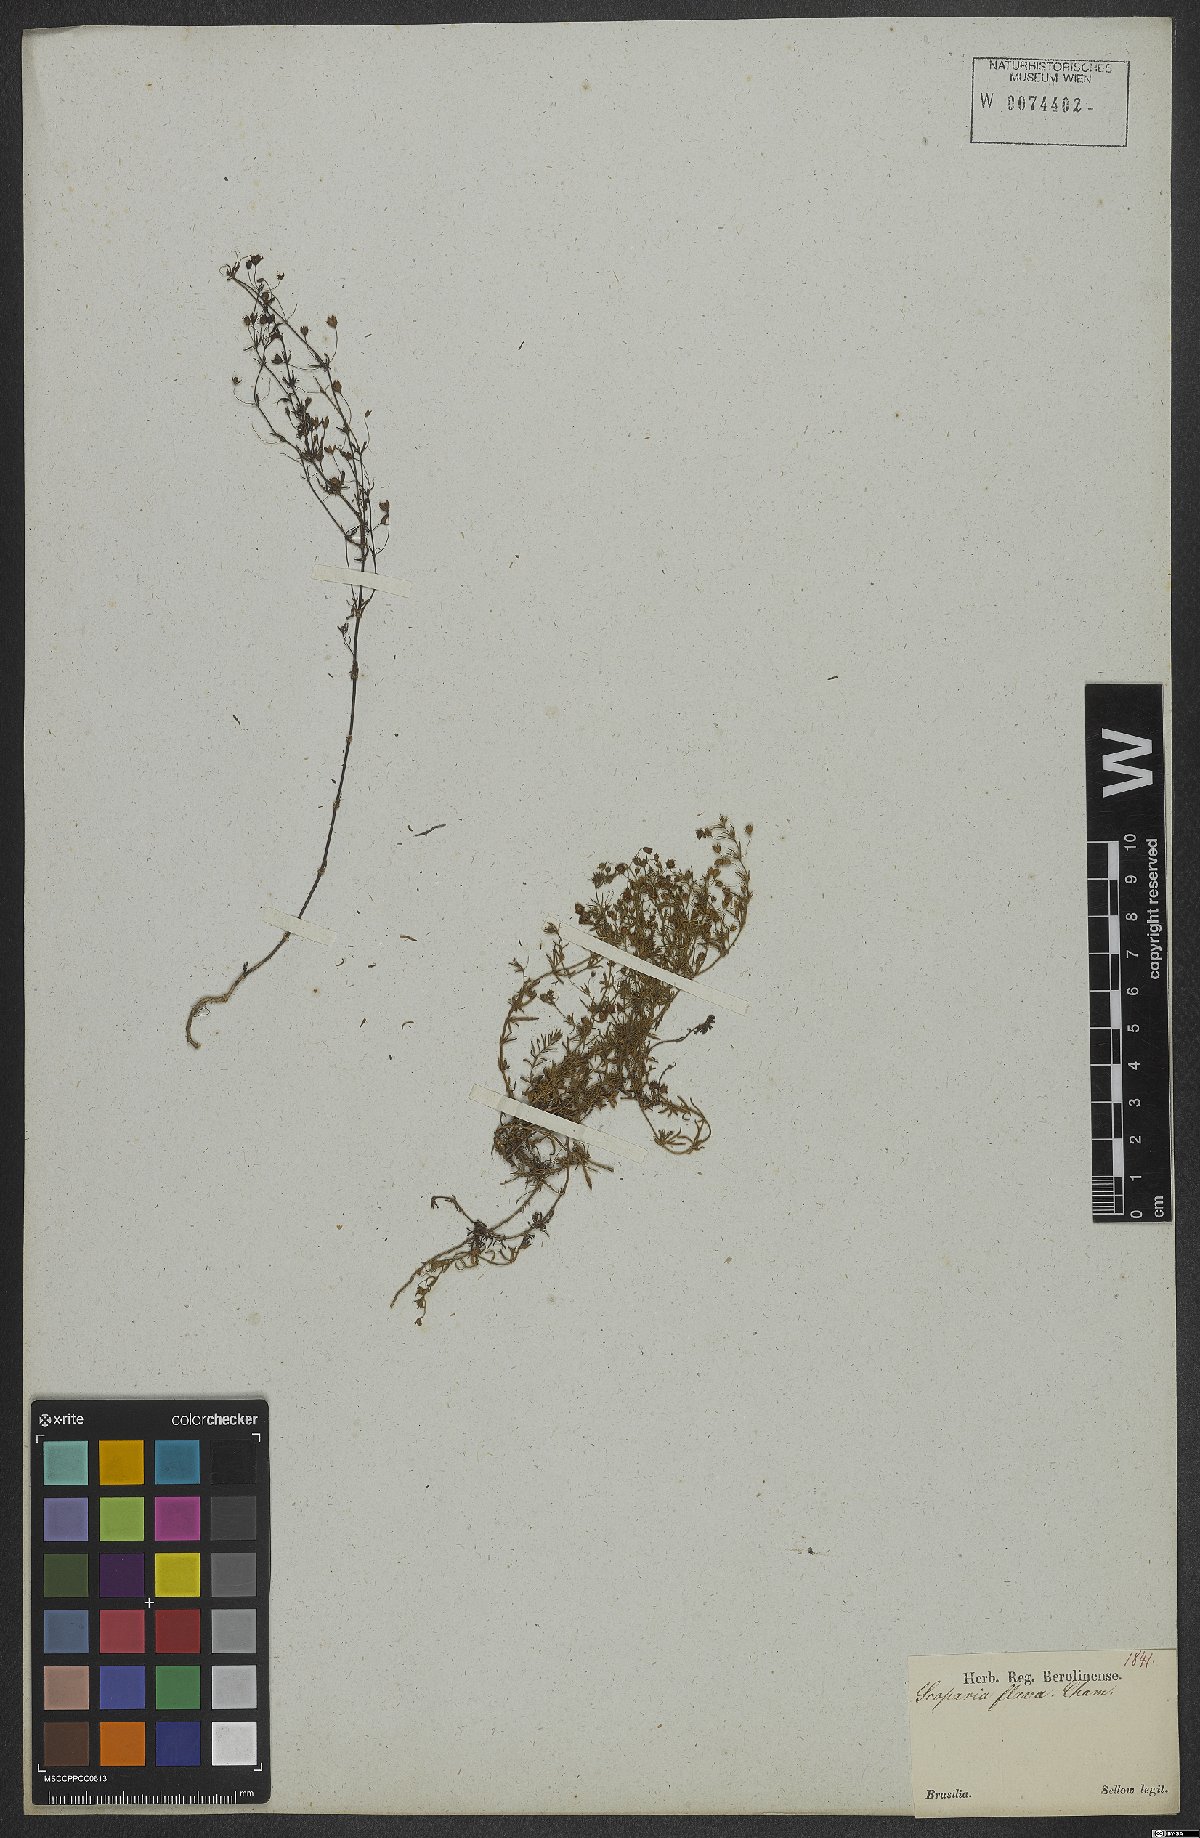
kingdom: Plantae
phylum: Tracheophyta
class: Magnoliopsida
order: Lamiales
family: Plantaginaceae
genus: Scoparia
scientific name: Scoparia montevidensis
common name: Broomwort
